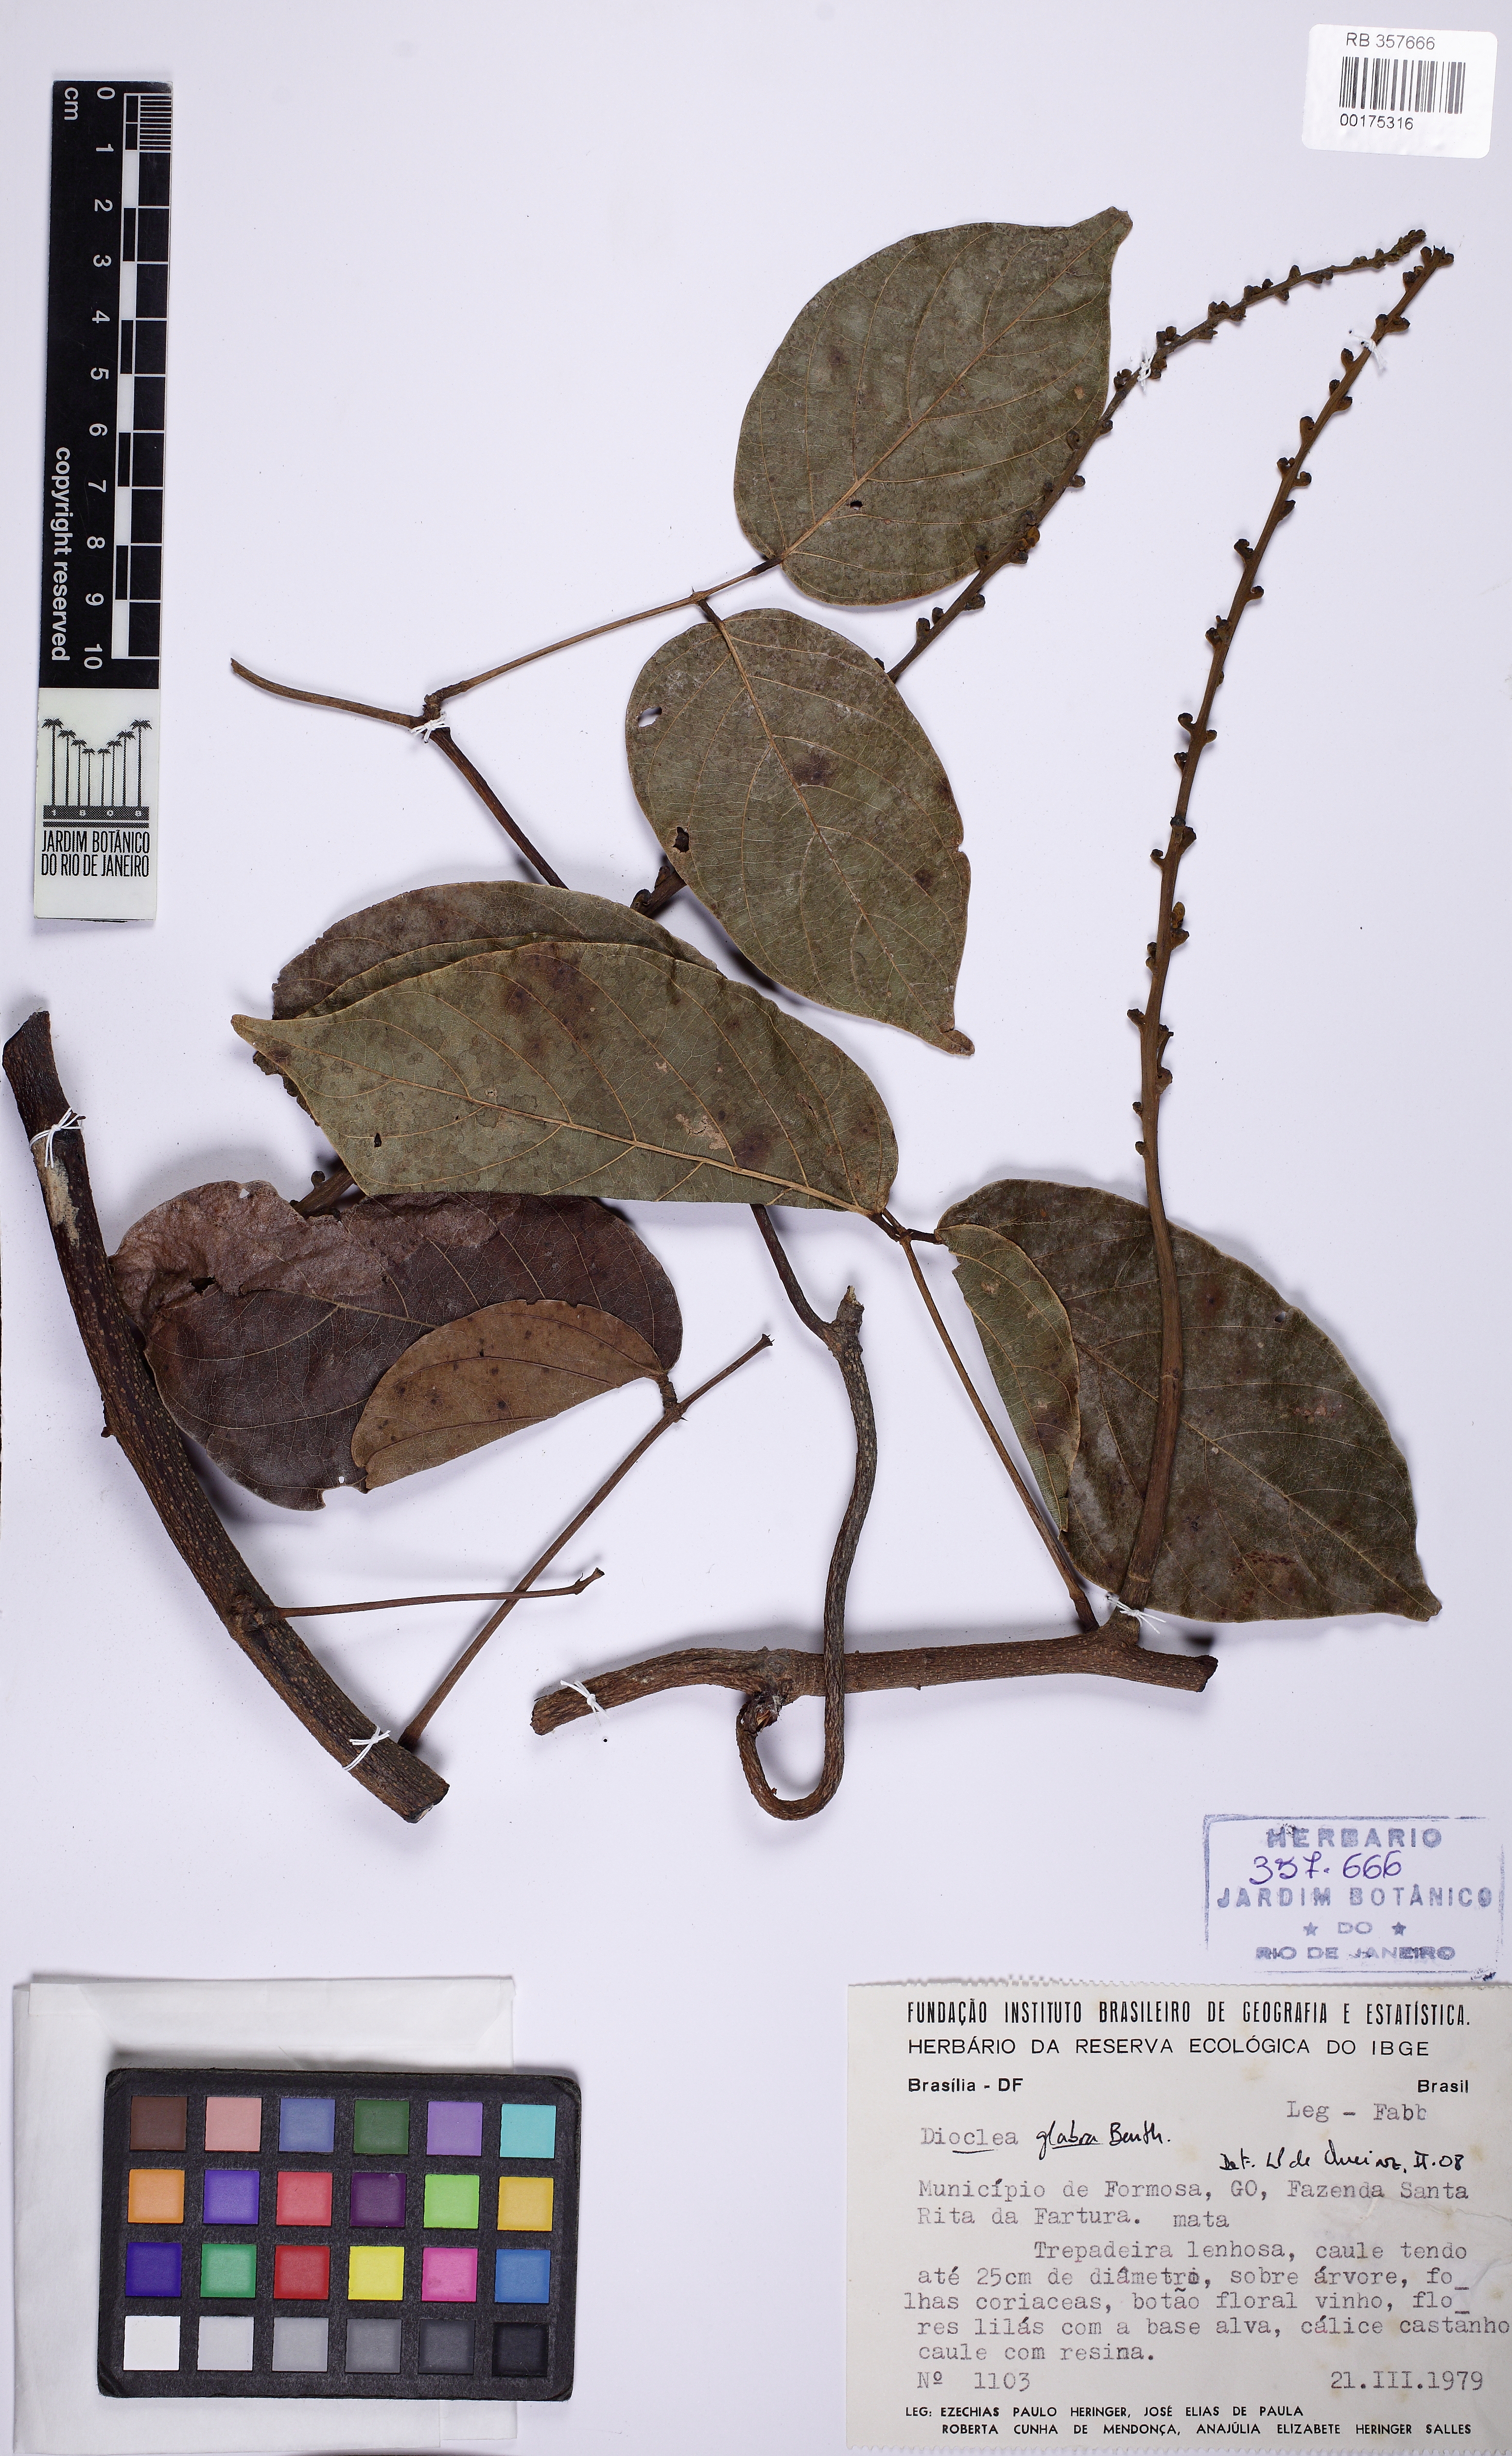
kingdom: Plantae
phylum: Tracheophyta
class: Magnoliopsida
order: Fabales
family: Fabaceae
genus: Macropsychanthus
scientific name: Macropsychanthus glaber
